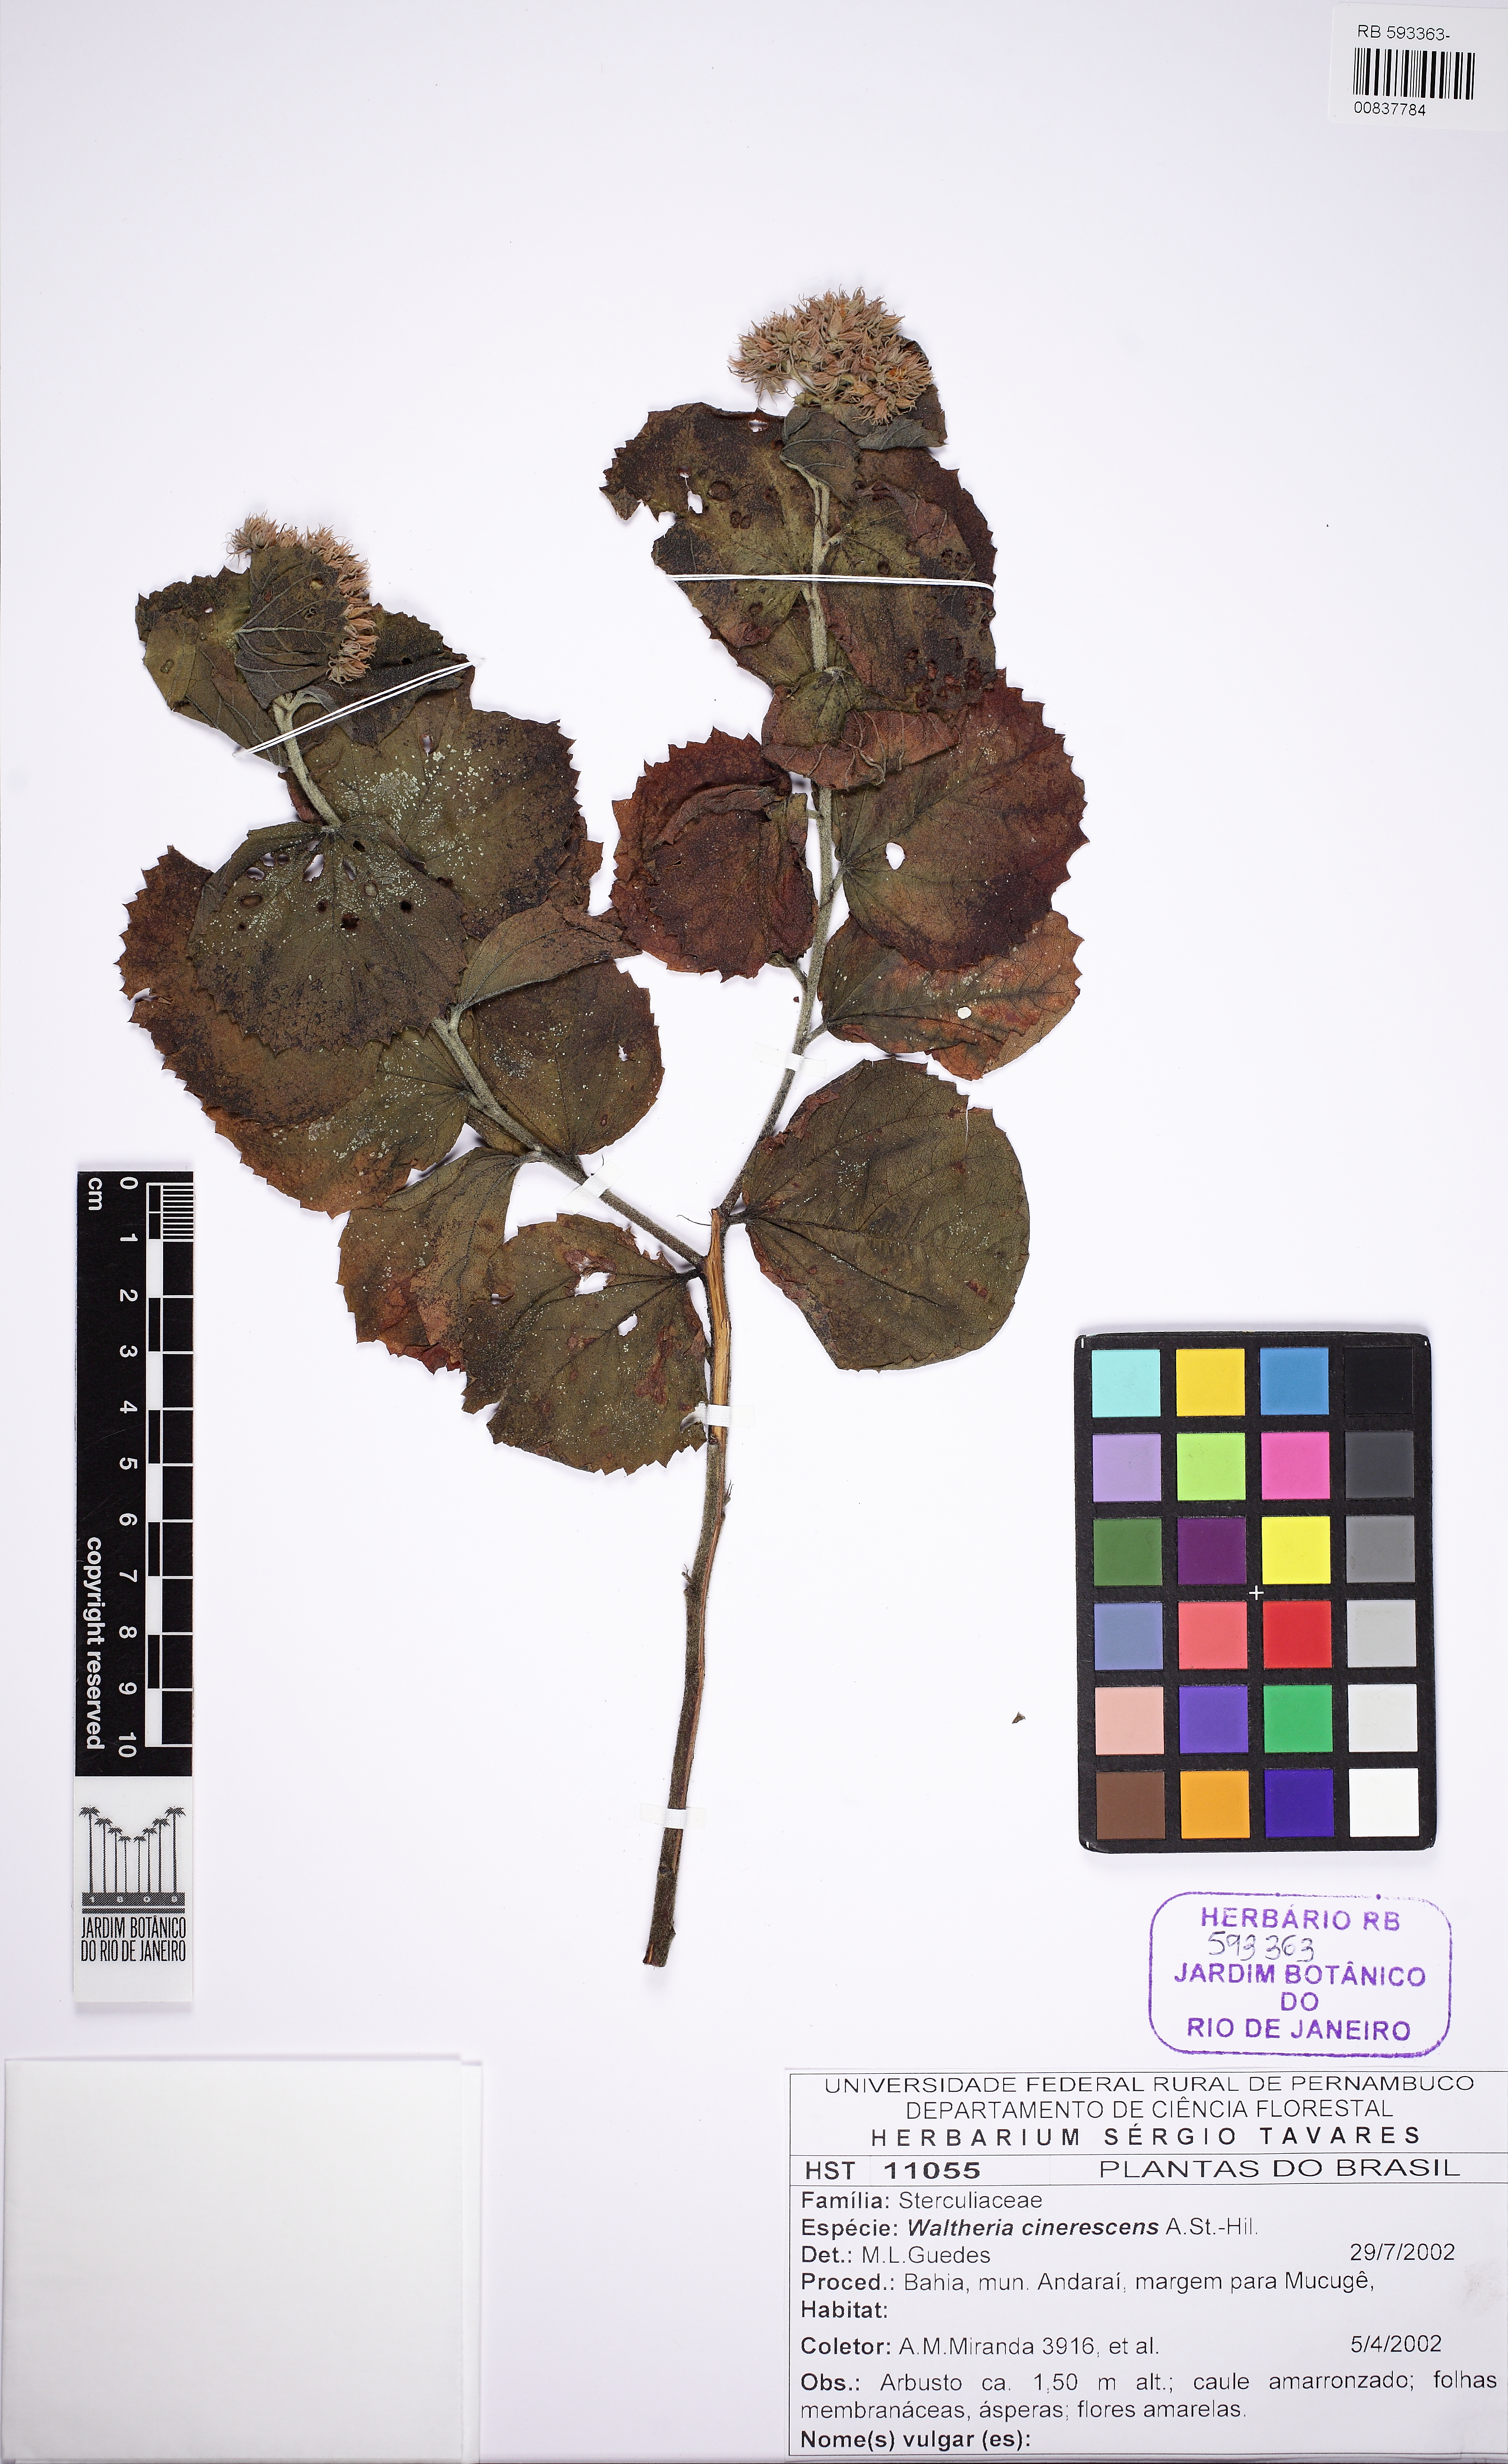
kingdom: Plantae
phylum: Tracheophyta
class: Magnoliopsida
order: Malvales
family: Malvaceae
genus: Waltheria
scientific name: Waltheria cinerascens
